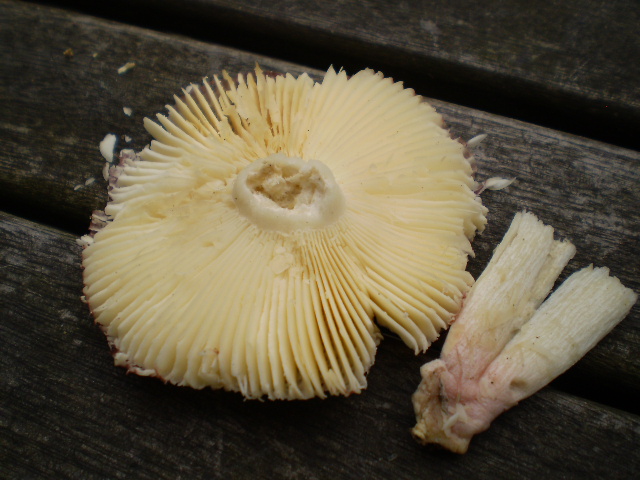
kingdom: Fungi
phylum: Basidiomycota
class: Agaricomycetes
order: Russulales
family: Russulaceae
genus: Russula
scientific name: Russula nitida
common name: året skørhat
